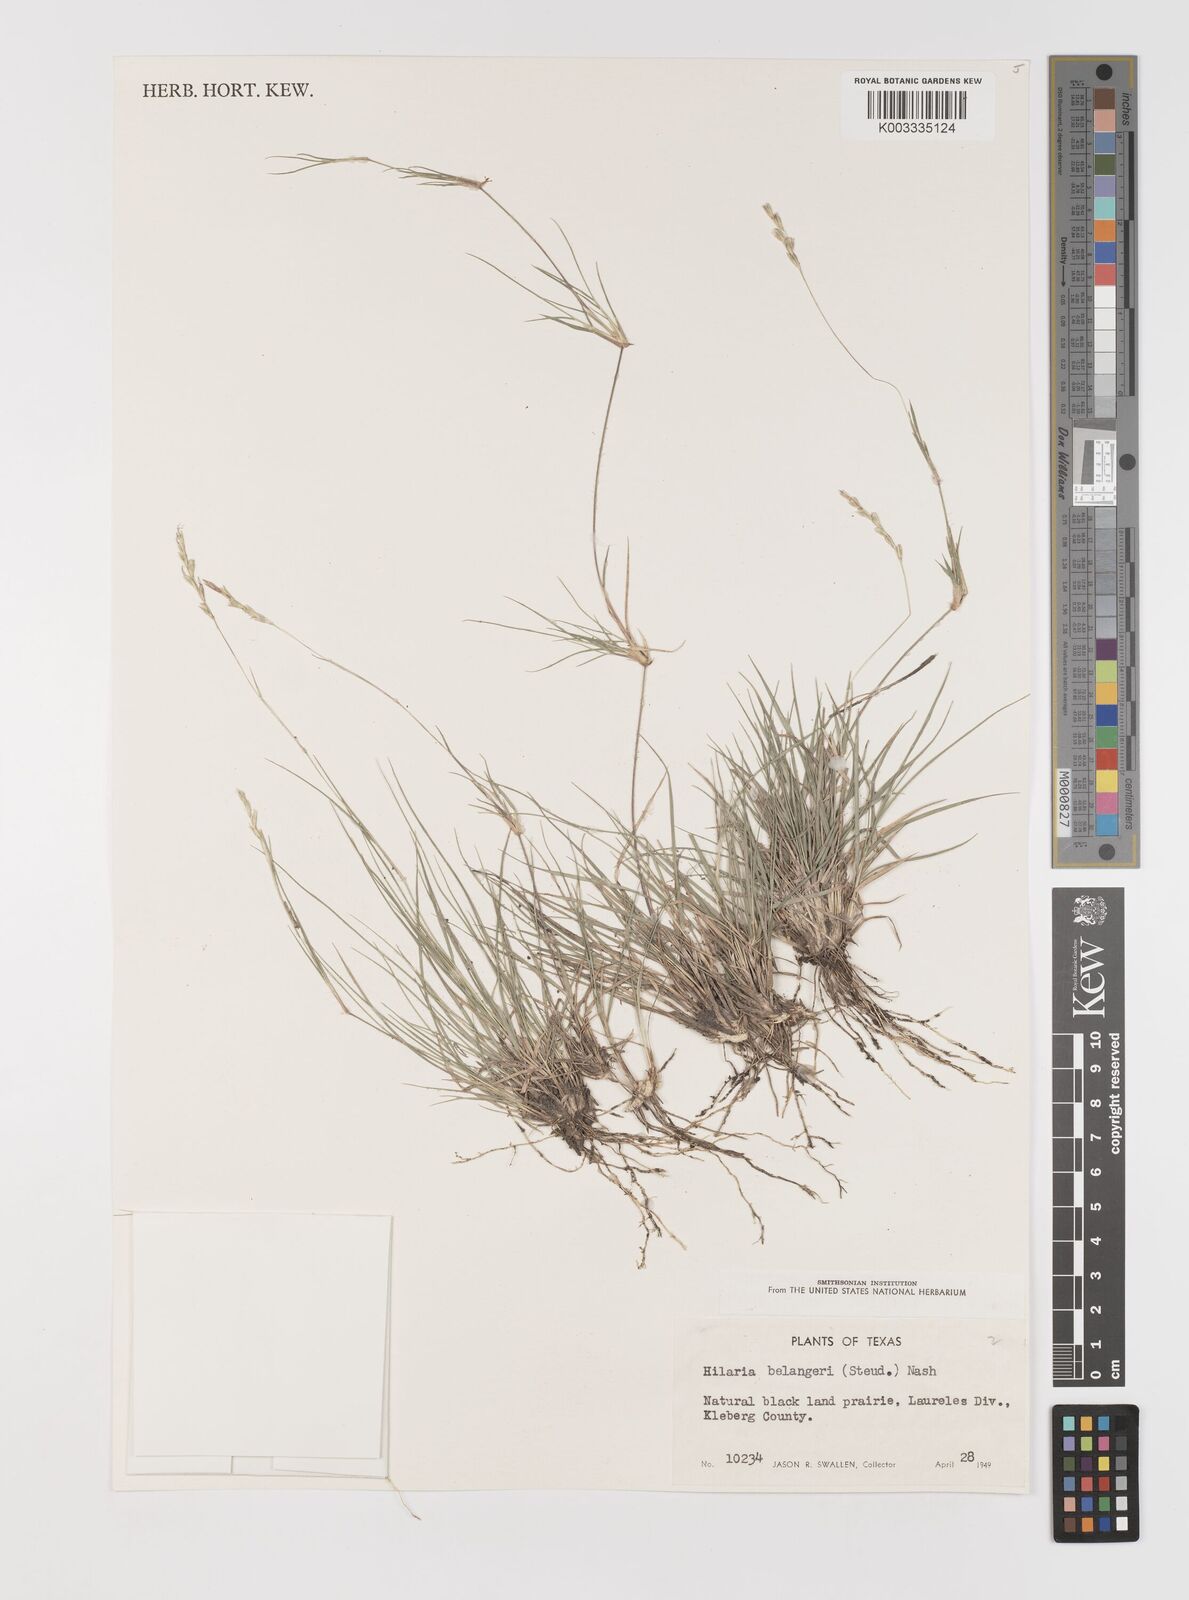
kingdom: Plantae
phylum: Tracheophyta
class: Liliopsida
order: Poales
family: Poaceae
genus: Hilaria
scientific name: Hilaria belangeri
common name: Curly-mesquite
